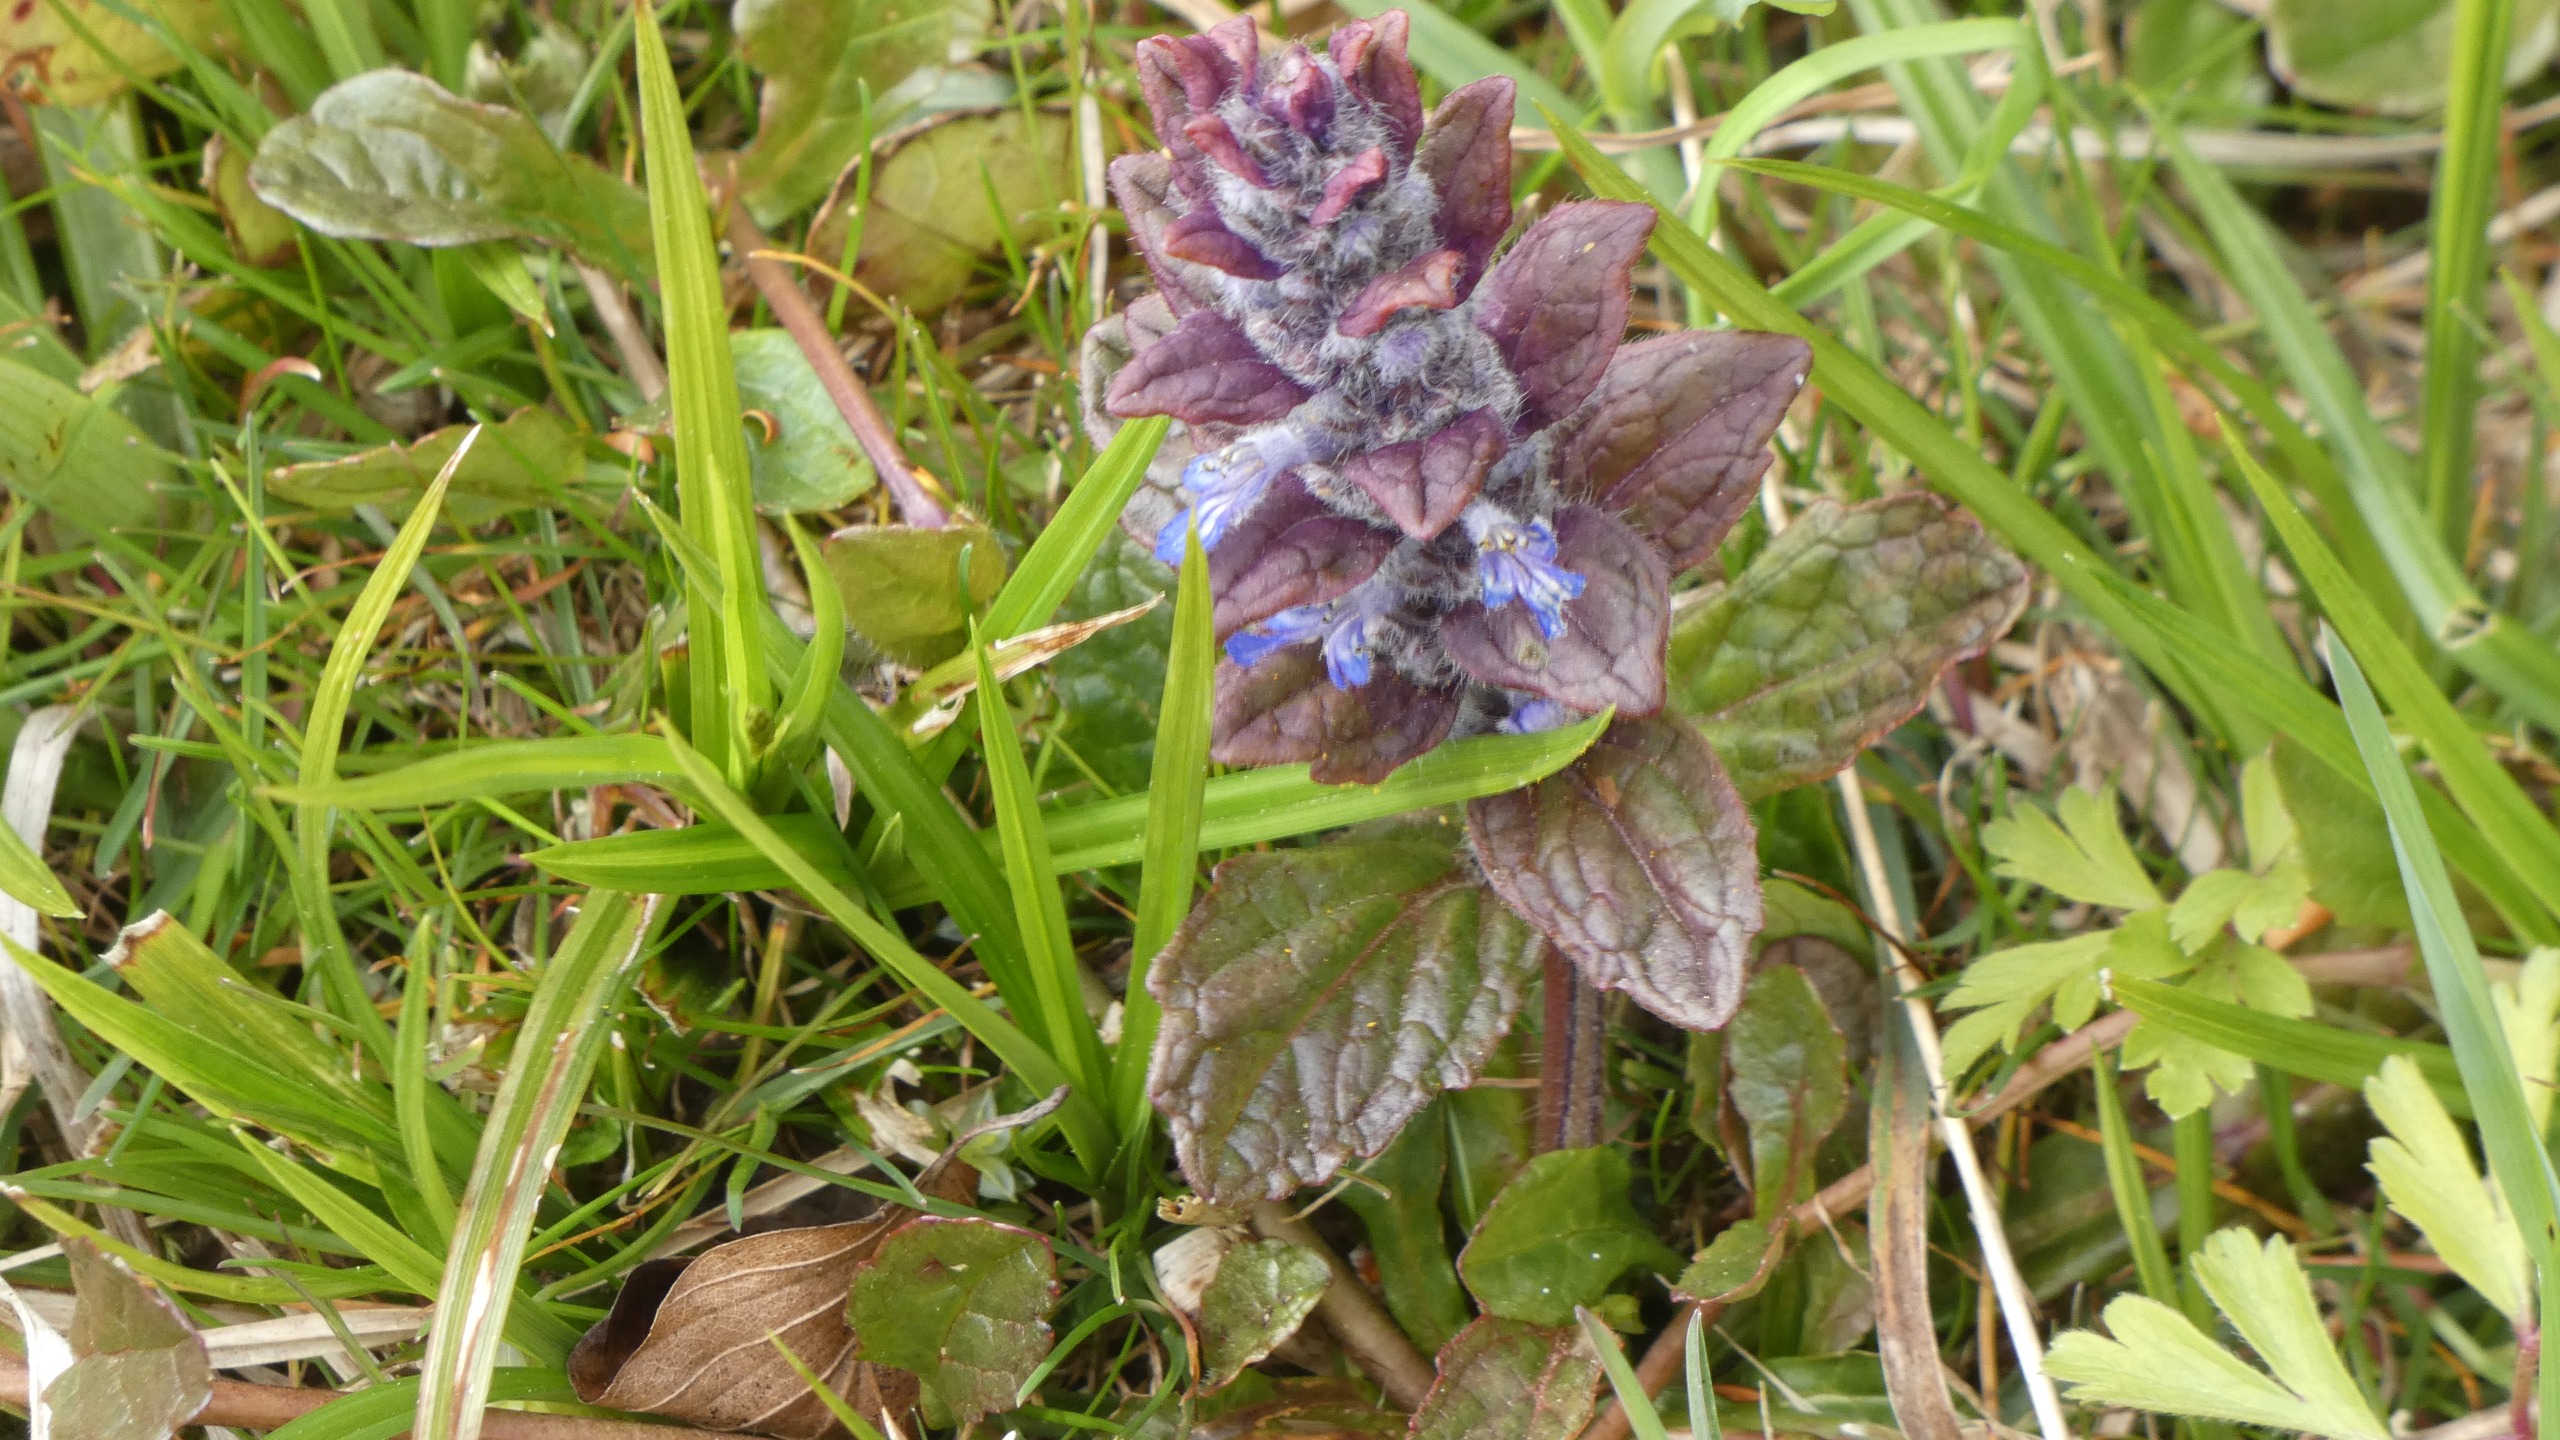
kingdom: Plantae
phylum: Tracheophyta
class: Magnoliopsida
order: Lamiales
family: Lamiaceae
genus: Ajuga
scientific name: Ajuga reptans
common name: Krybende læbeløs
